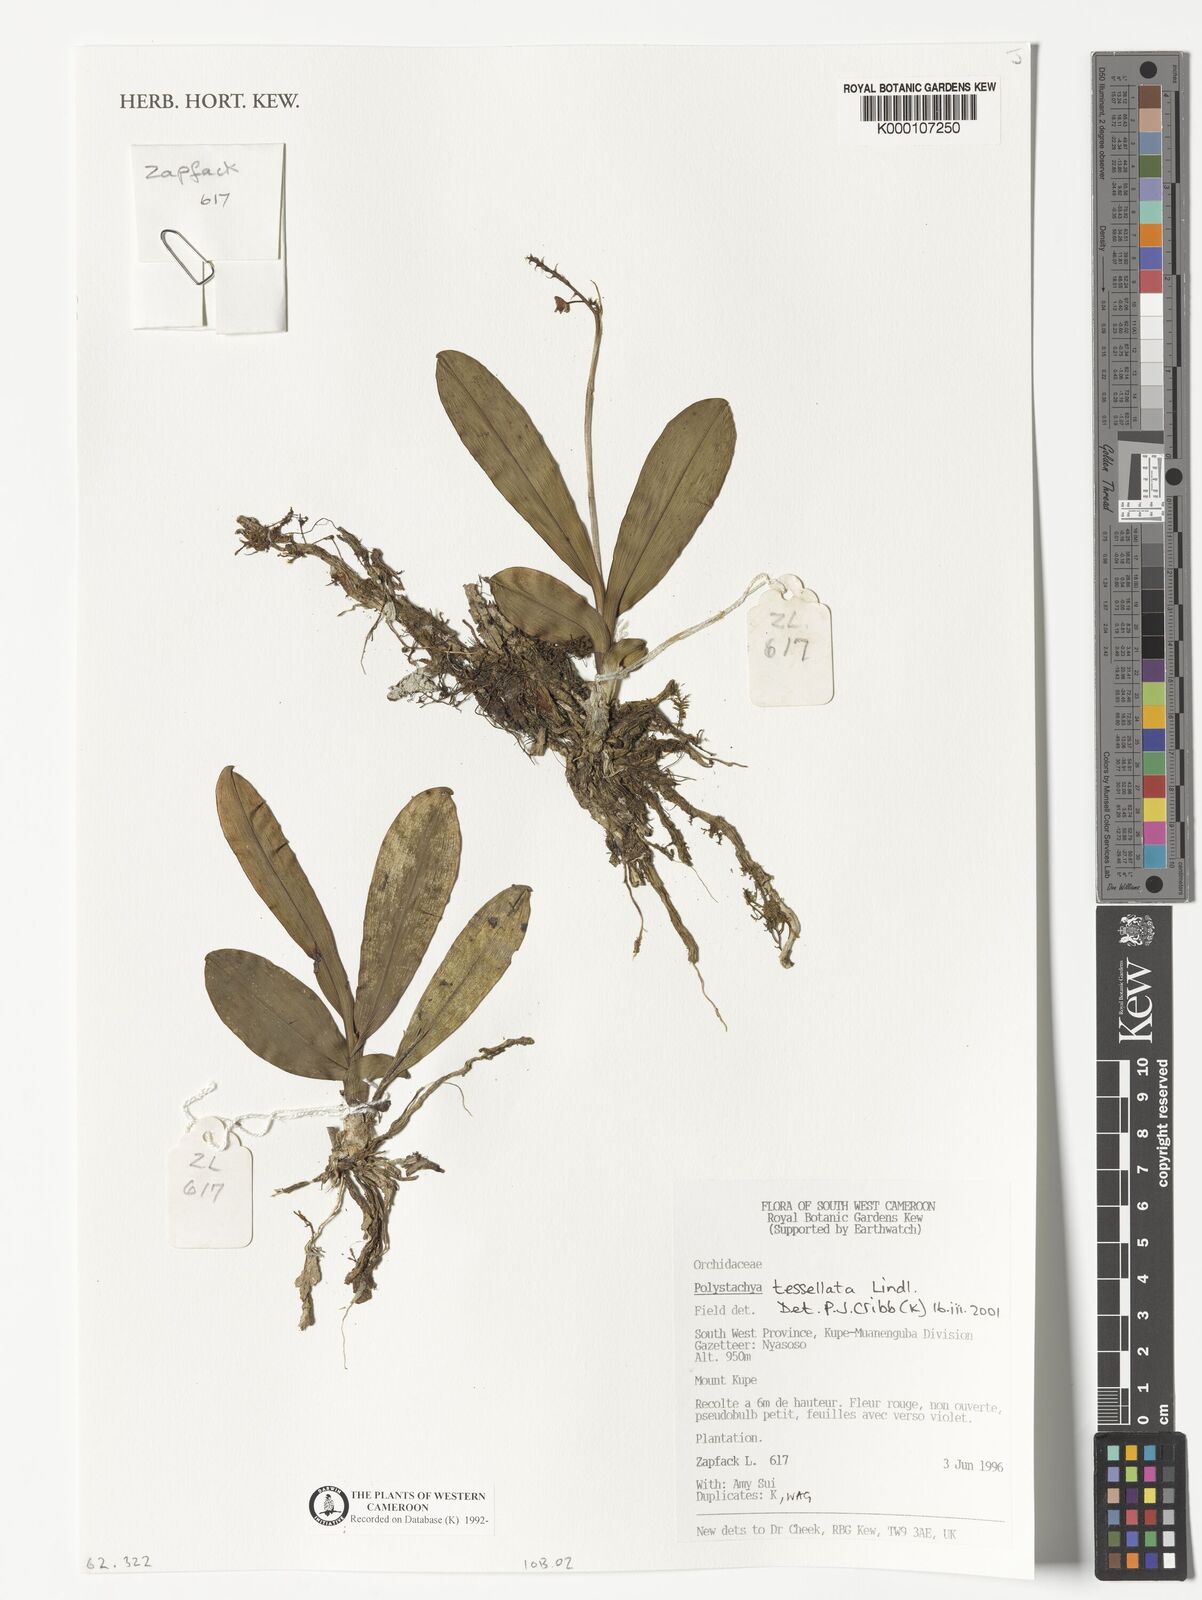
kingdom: Plantae
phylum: Tracheophyta
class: Liliopsida
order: Asparagales
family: Orchidaceae
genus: Polystachya
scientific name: Polystachya concreta
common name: Greater yellowspike orchid
